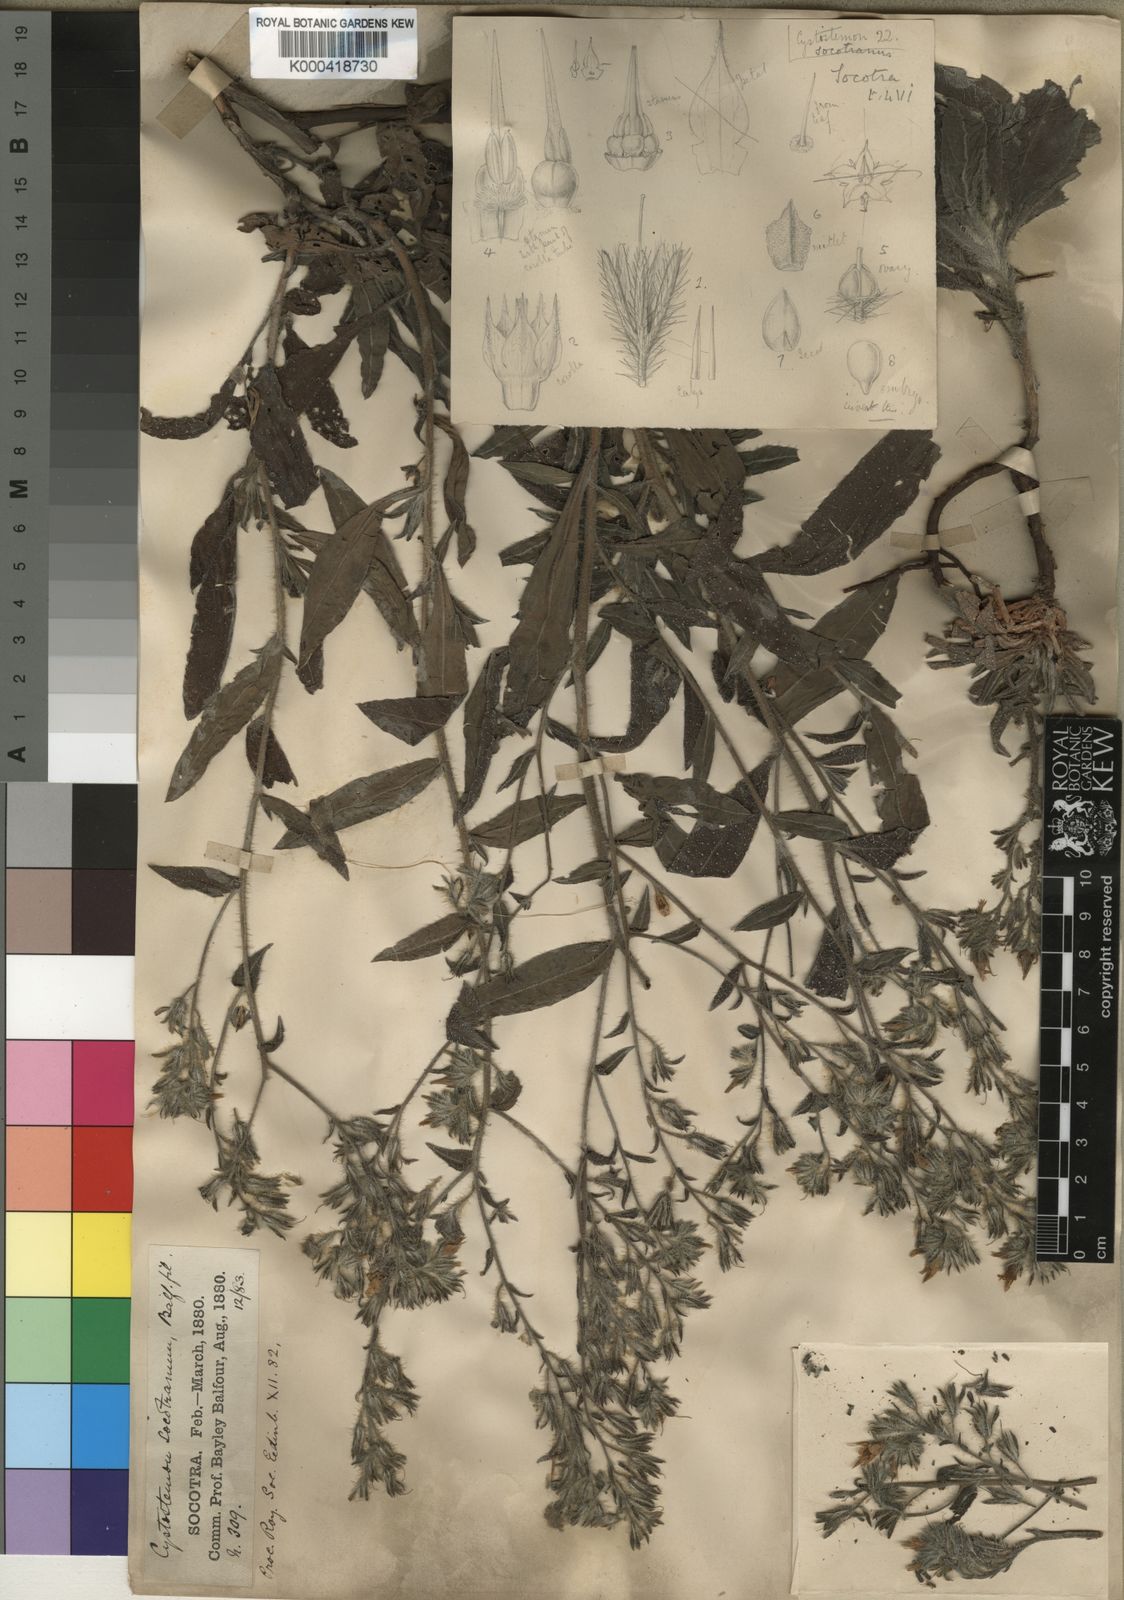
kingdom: Plantae
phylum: Tracheophyta
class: Magnoliopsida
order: Boraginales
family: Boraginaceae
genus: Cystostemon
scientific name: Cystostemon socotranus
